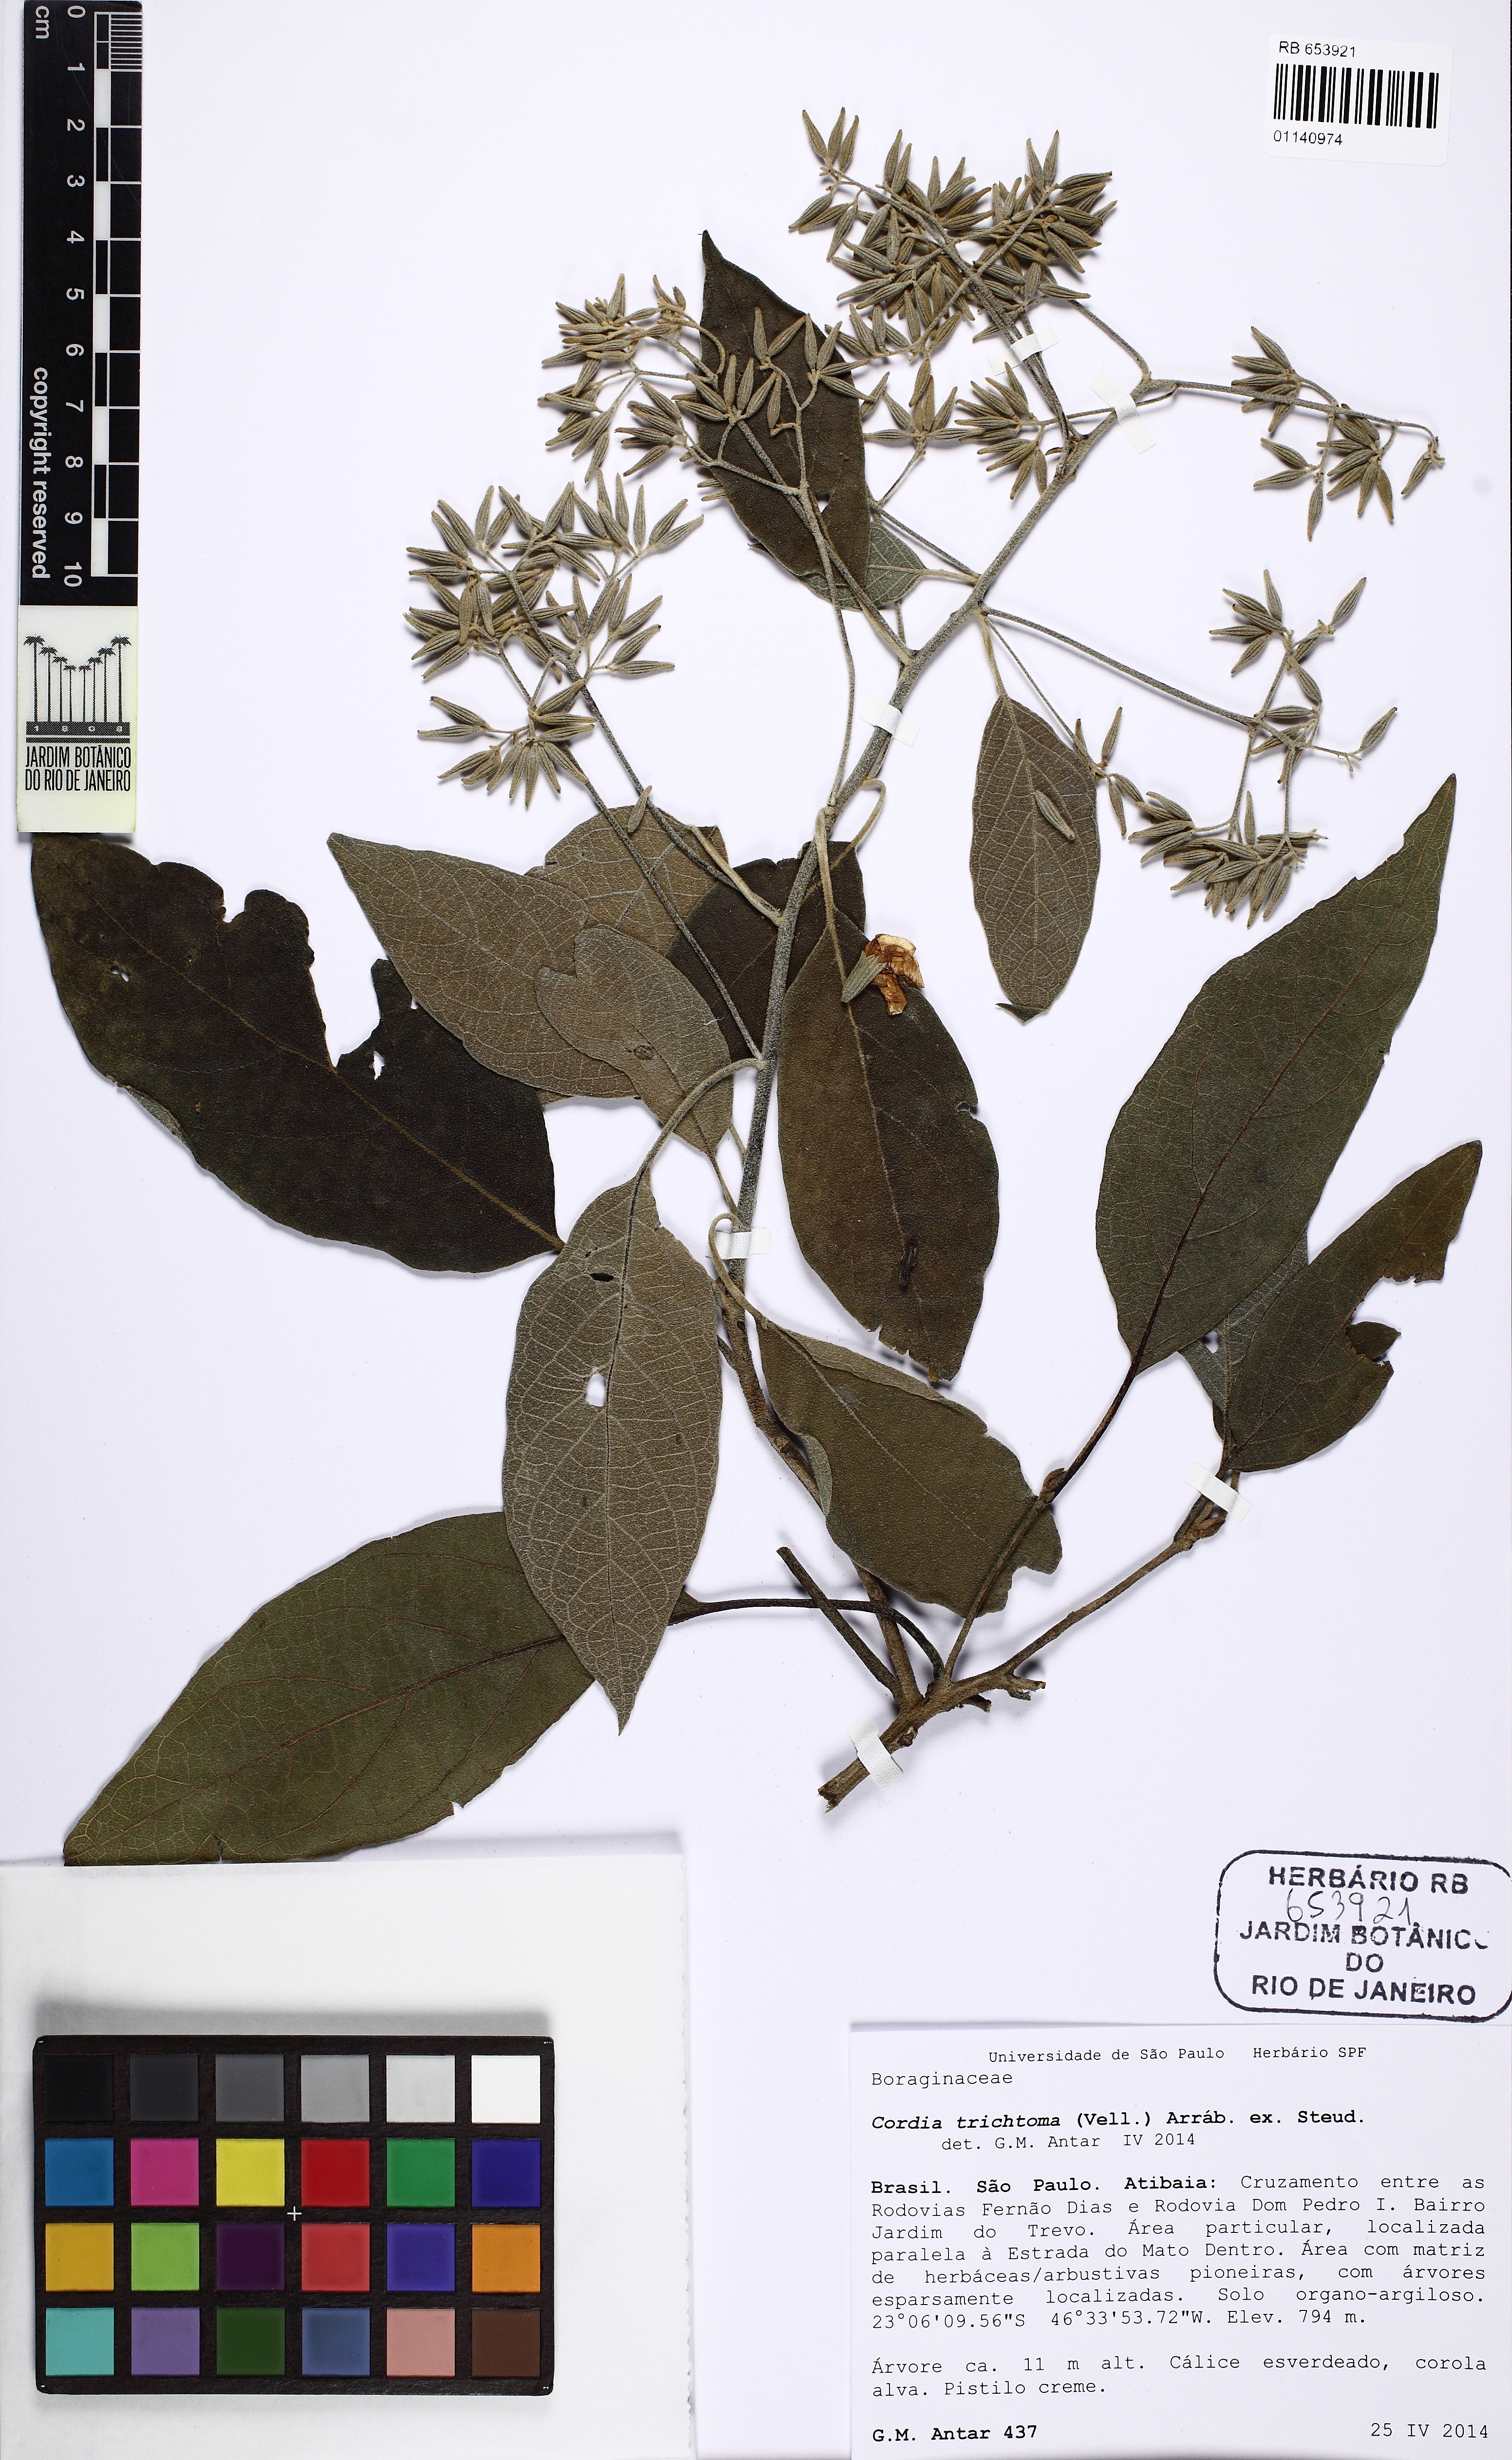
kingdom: Plantae
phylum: Tracheophyta
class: Magnoliopsida
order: Boraginales
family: Cordiaceae
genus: Cordia
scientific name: Cordia trichotoma
